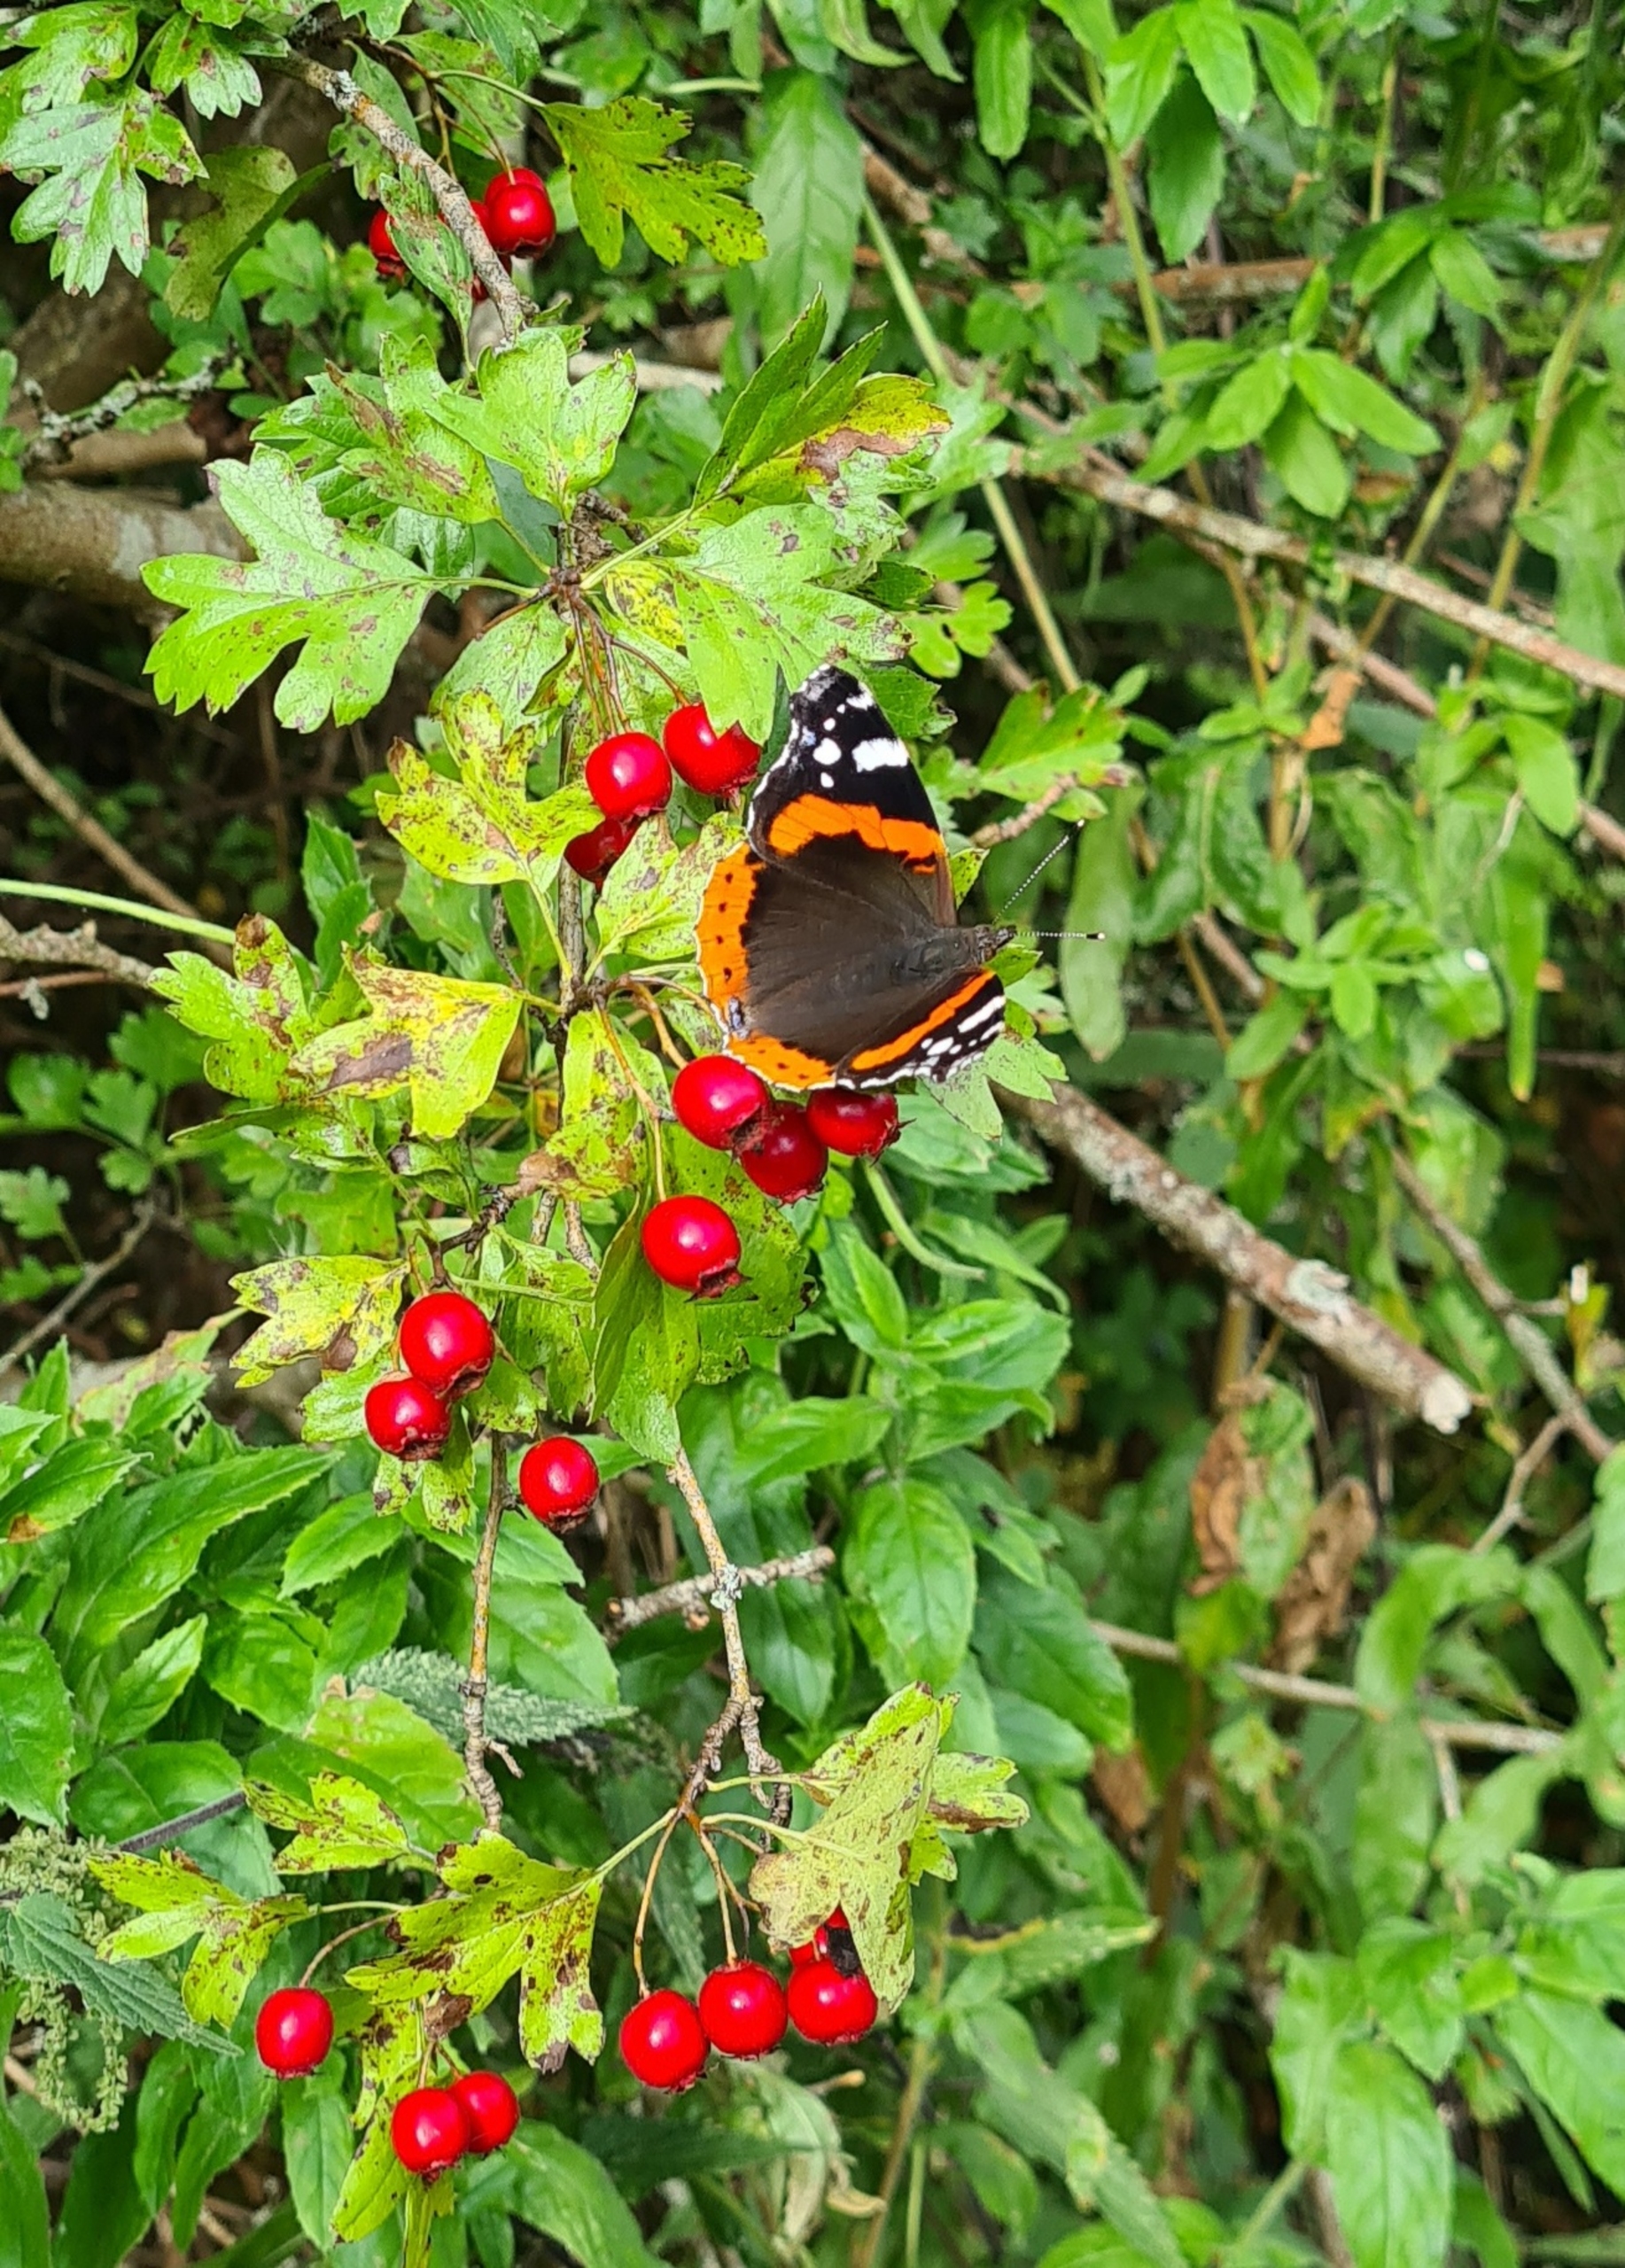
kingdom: Animalia
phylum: Arthropoda
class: Insecta
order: Lepidoptera
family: Nymphalidae
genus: Vanessa
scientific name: Vanessa atalanta
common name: Admiral
